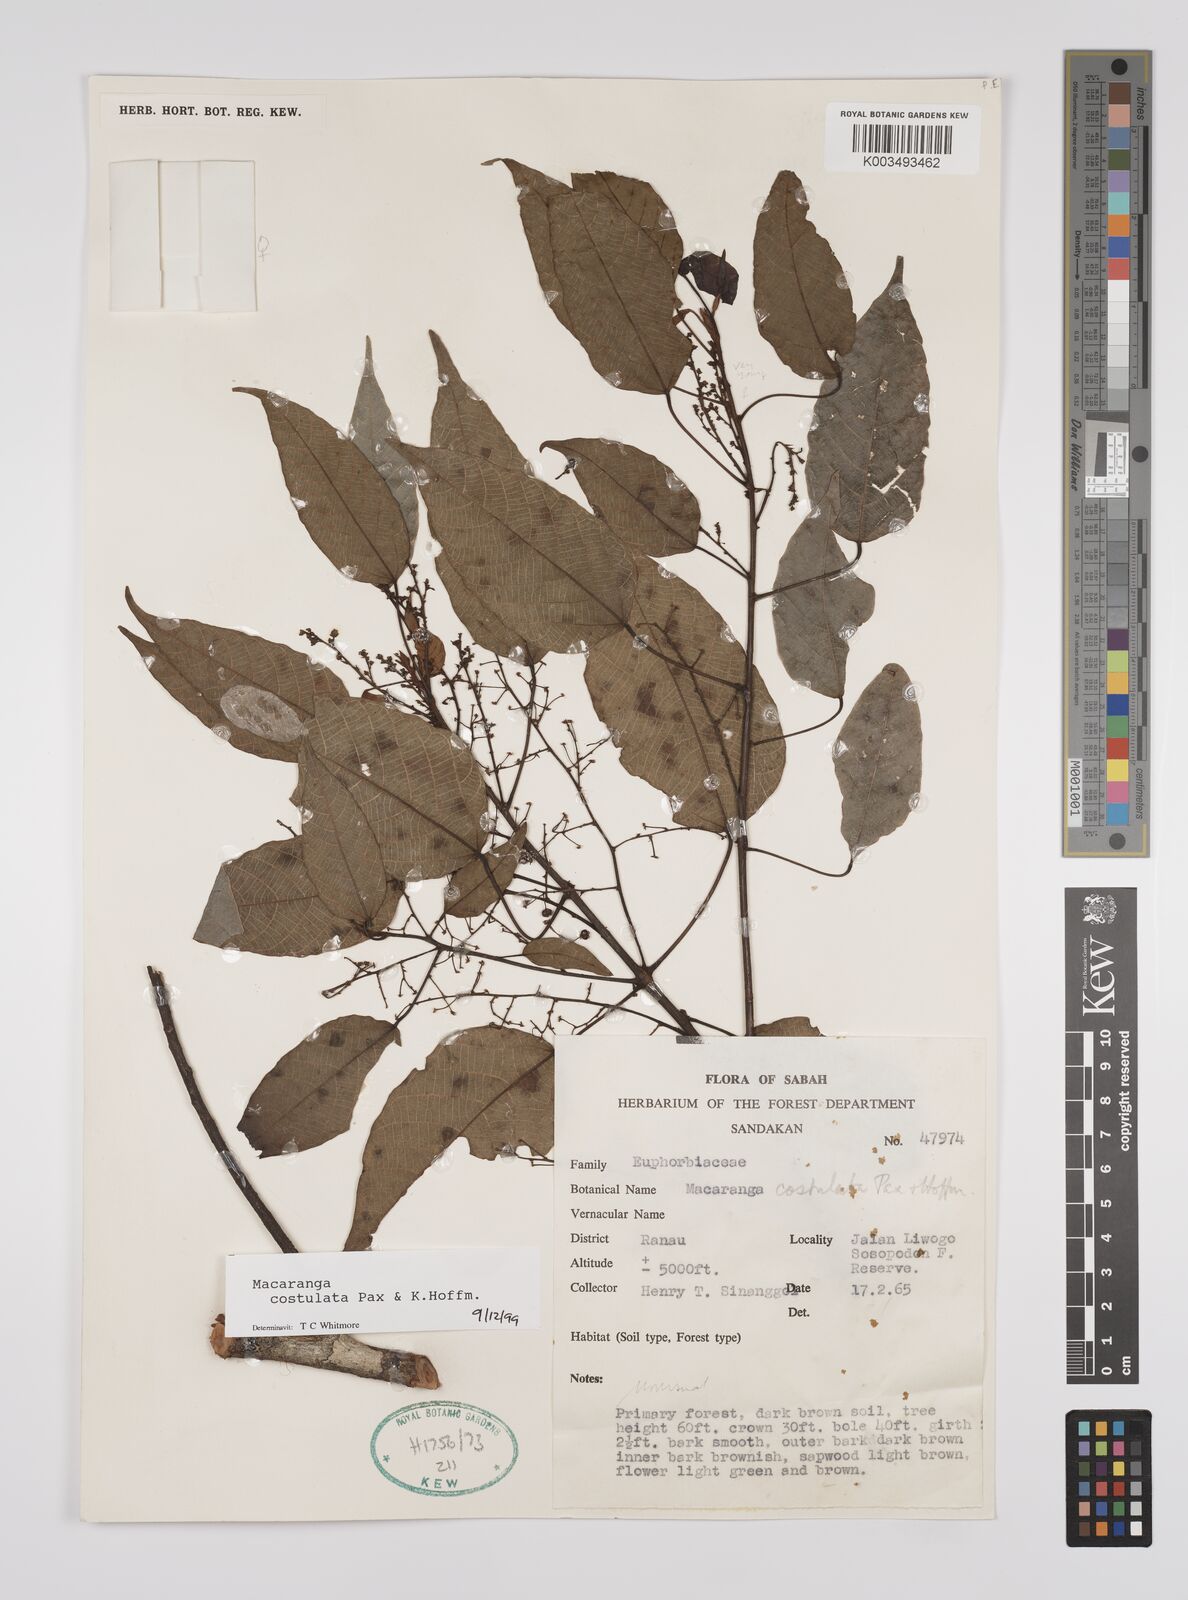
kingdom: Plantae
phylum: Tracheophyta
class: Magnoliopsida
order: Malpighiales
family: Euphorbiaceae
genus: Macaranga
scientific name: Macaranga costulata
